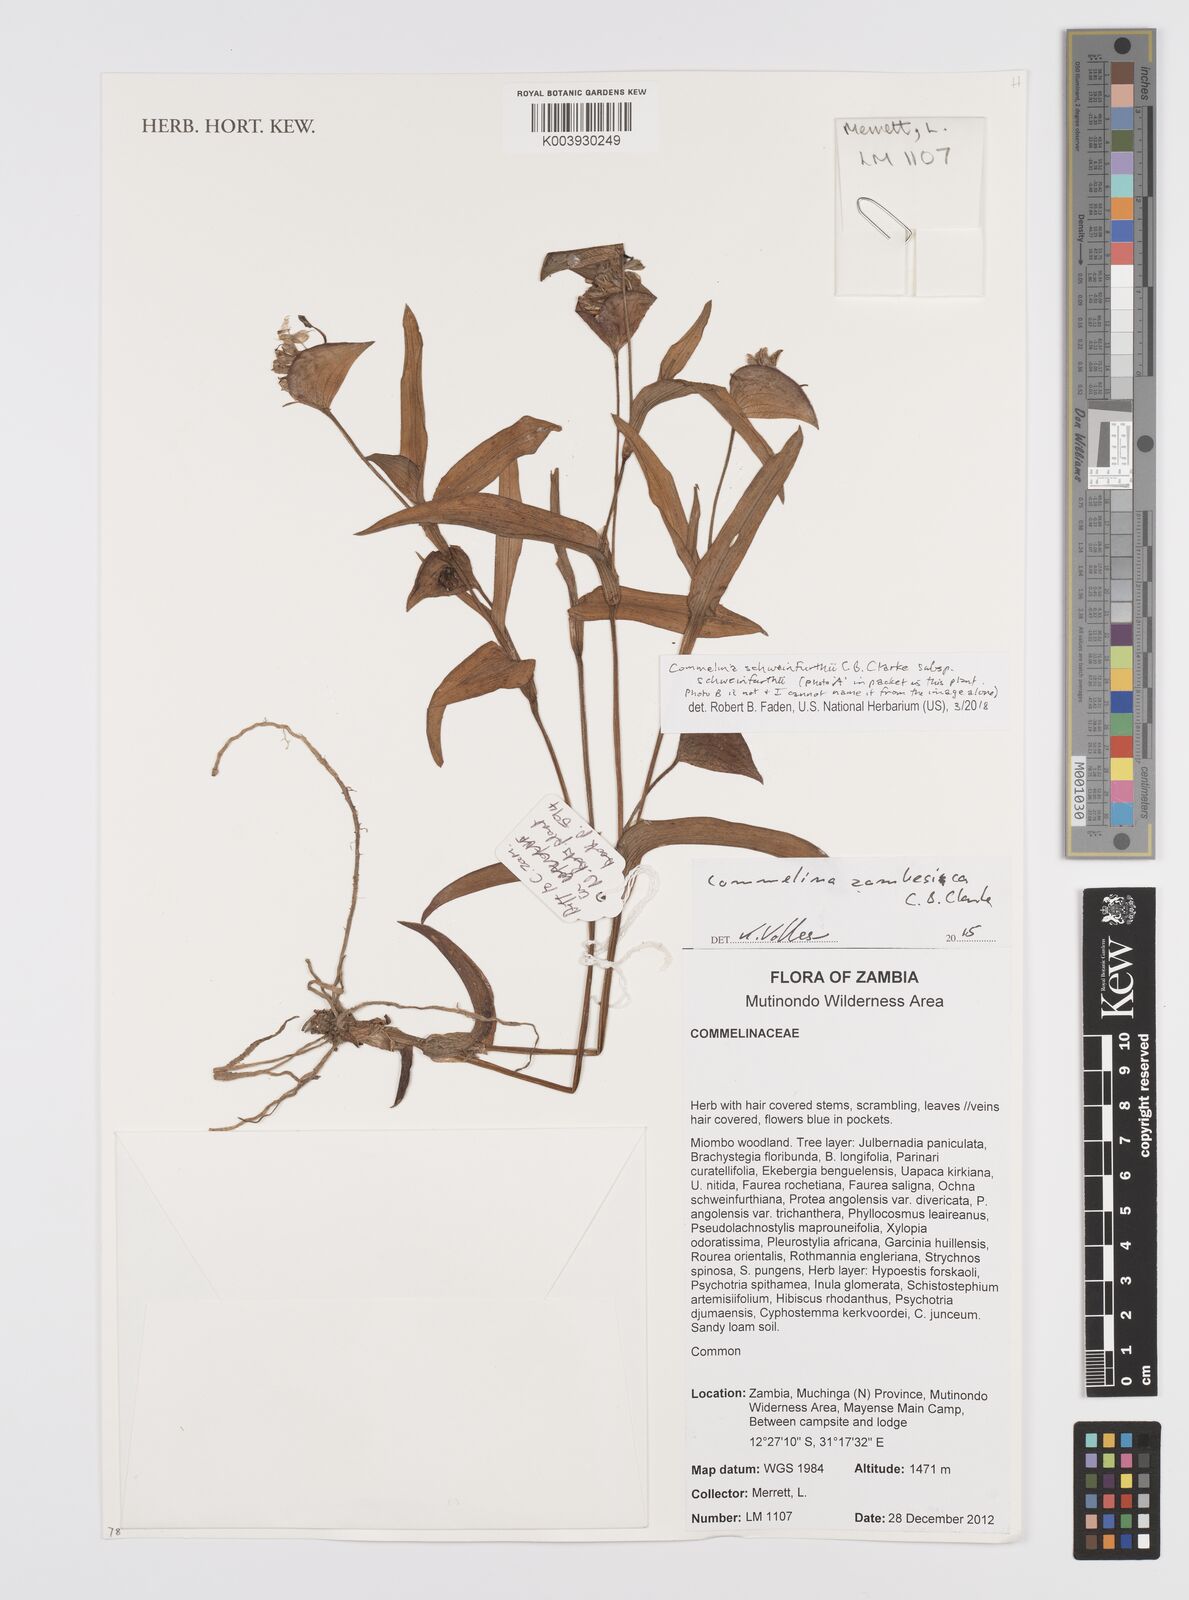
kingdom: Plantae
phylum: Tracheophyta
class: Liliopsida
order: Commelinales
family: Commelinaceae
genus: Commelina
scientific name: Commelina schweinfurthii
